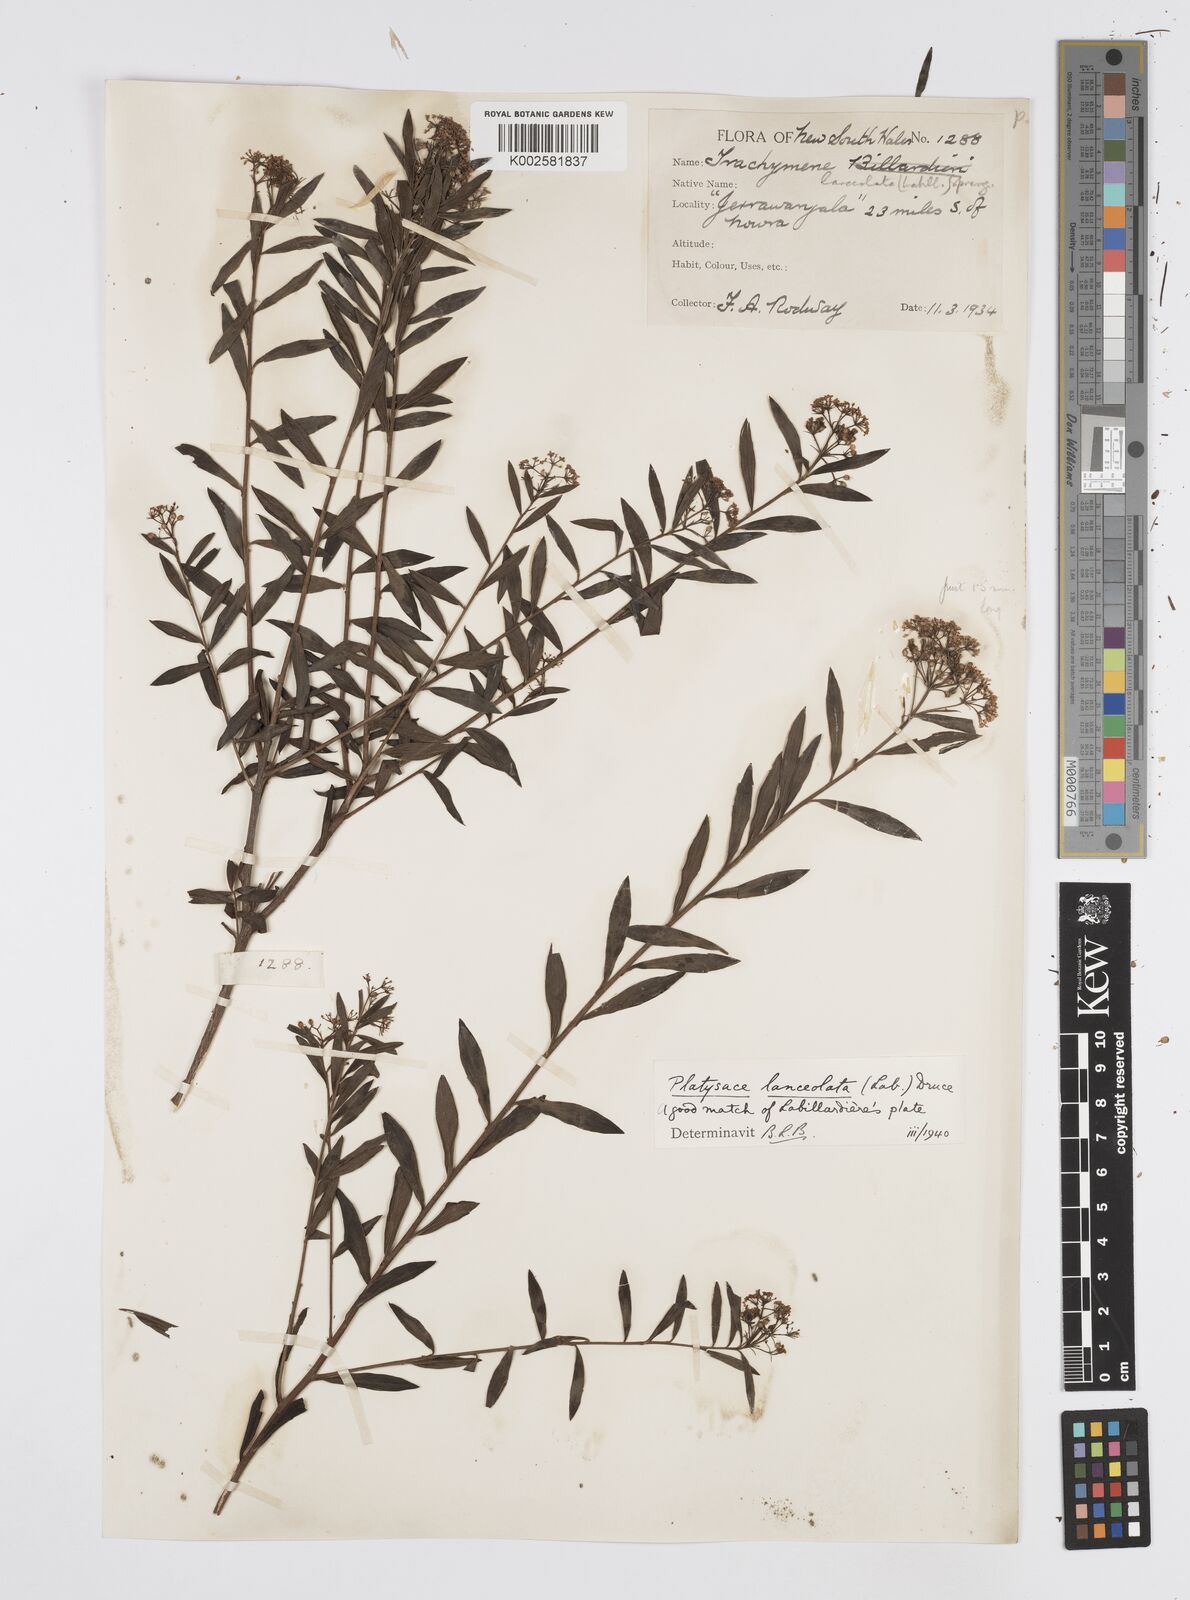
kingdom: Plantae
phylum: Tracheophyta
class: Magnoliopsida
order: Apiales
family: Apiaceae
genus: Platysace
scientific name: Platysace lanceolata
